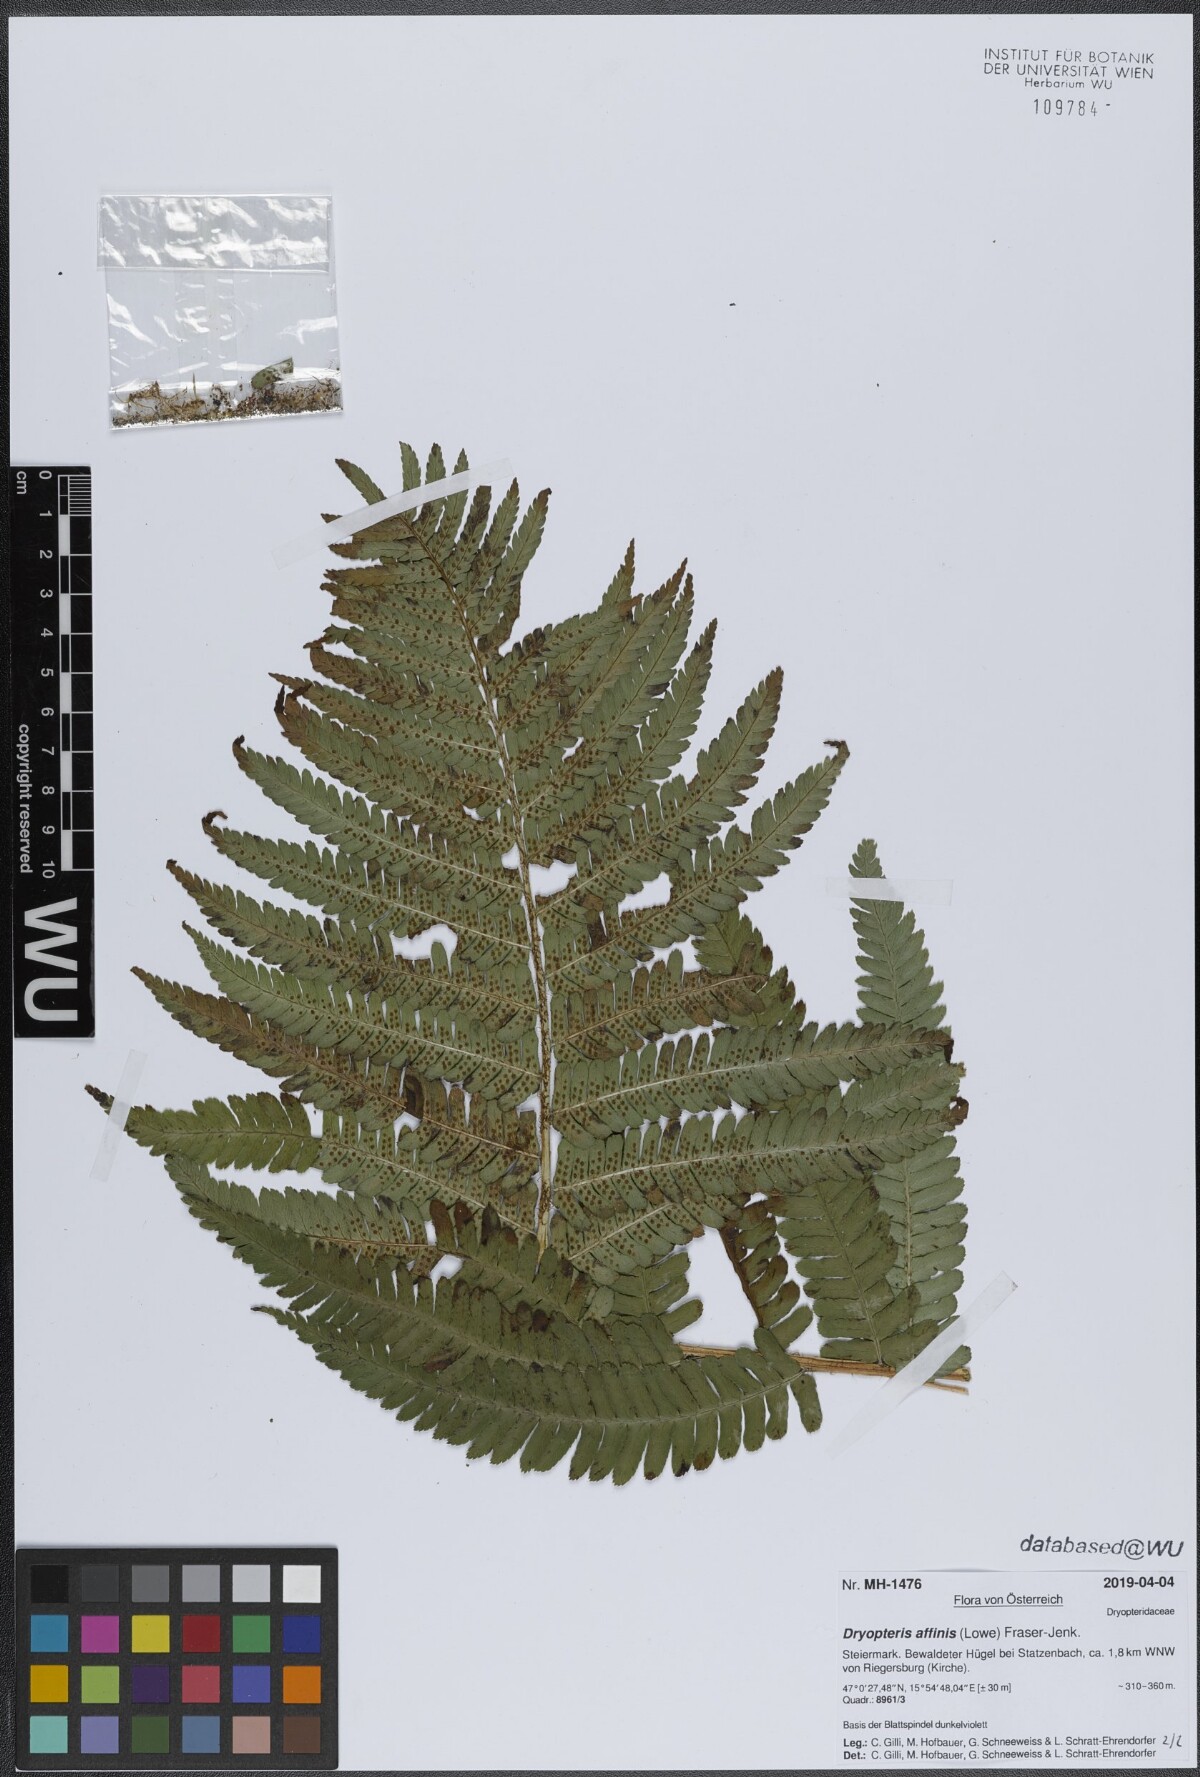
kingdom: Plantae
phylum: Tracheophyta
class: Polypodiopsida
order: Polypodiales
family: Dryopteridaceae
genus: Dryopteris
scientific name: Dryopteris affinis
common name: Scaly male fern
